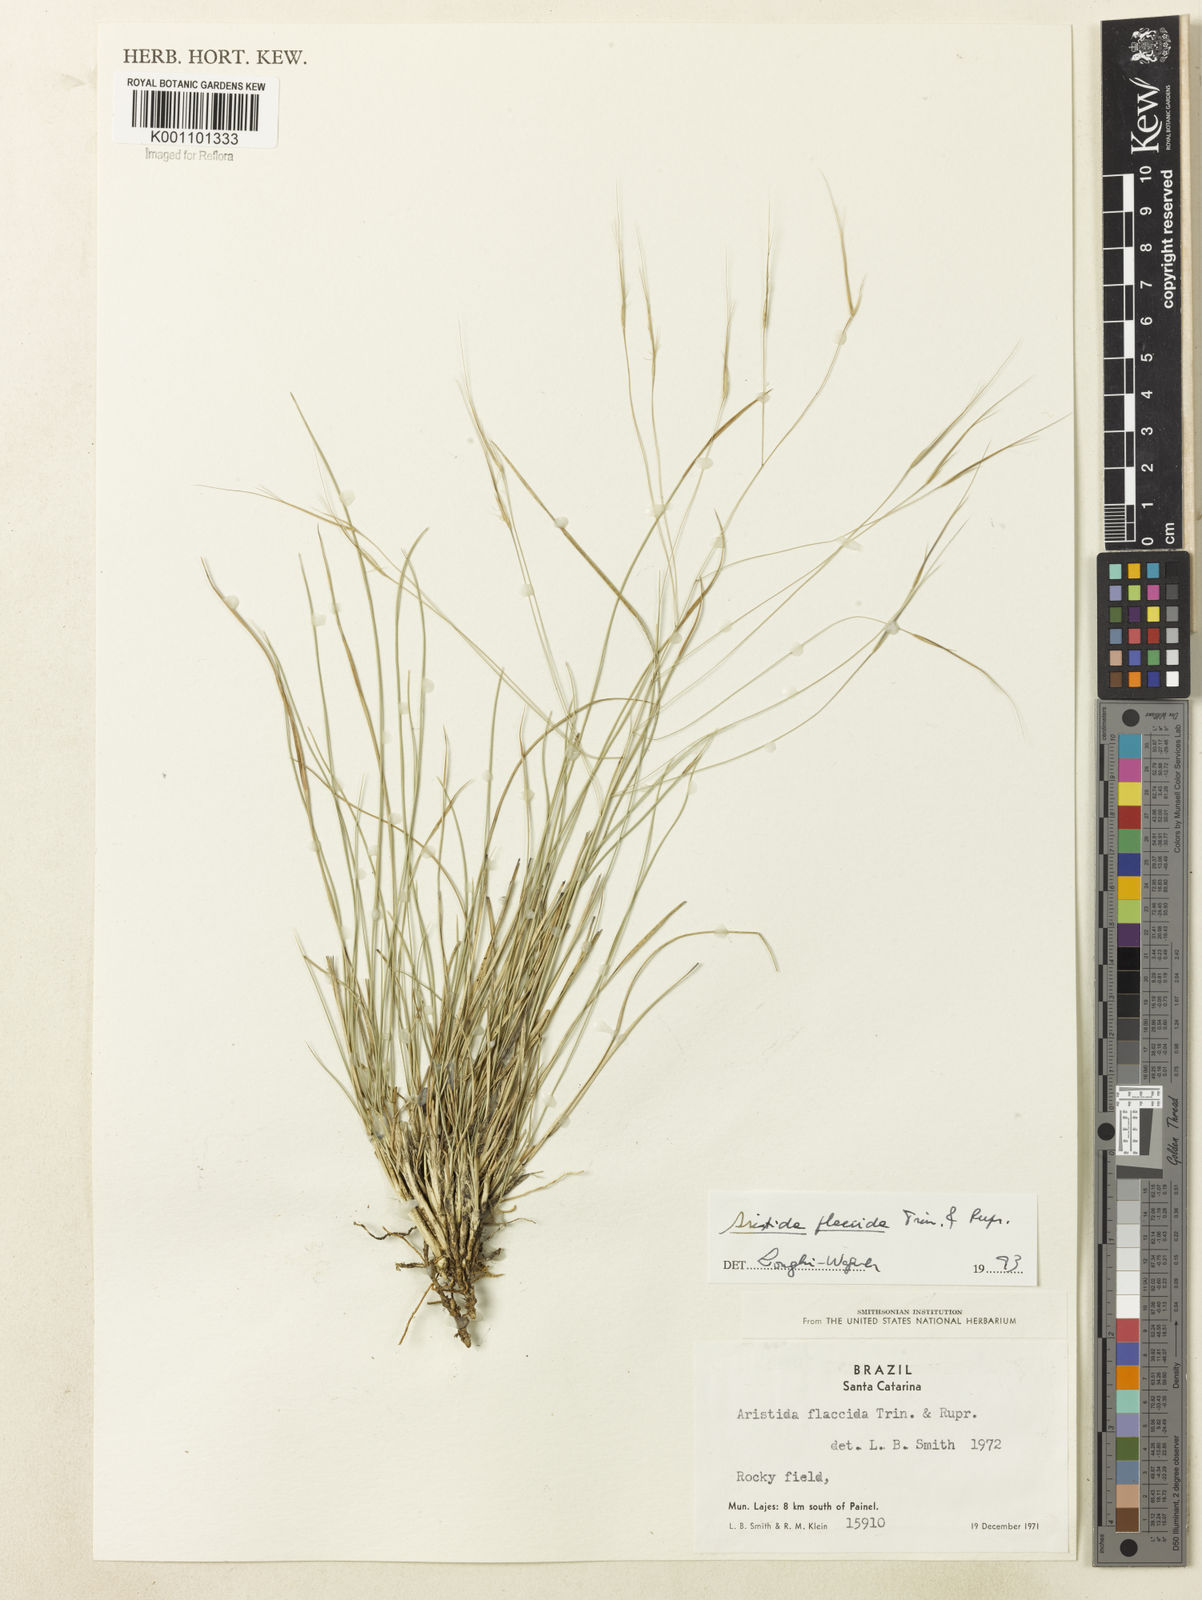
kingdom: Plantae
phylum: Tracheophyta
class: Liliopsida
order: Poales
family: Poaceae
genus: Aristida
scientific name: Aristida flaccida
